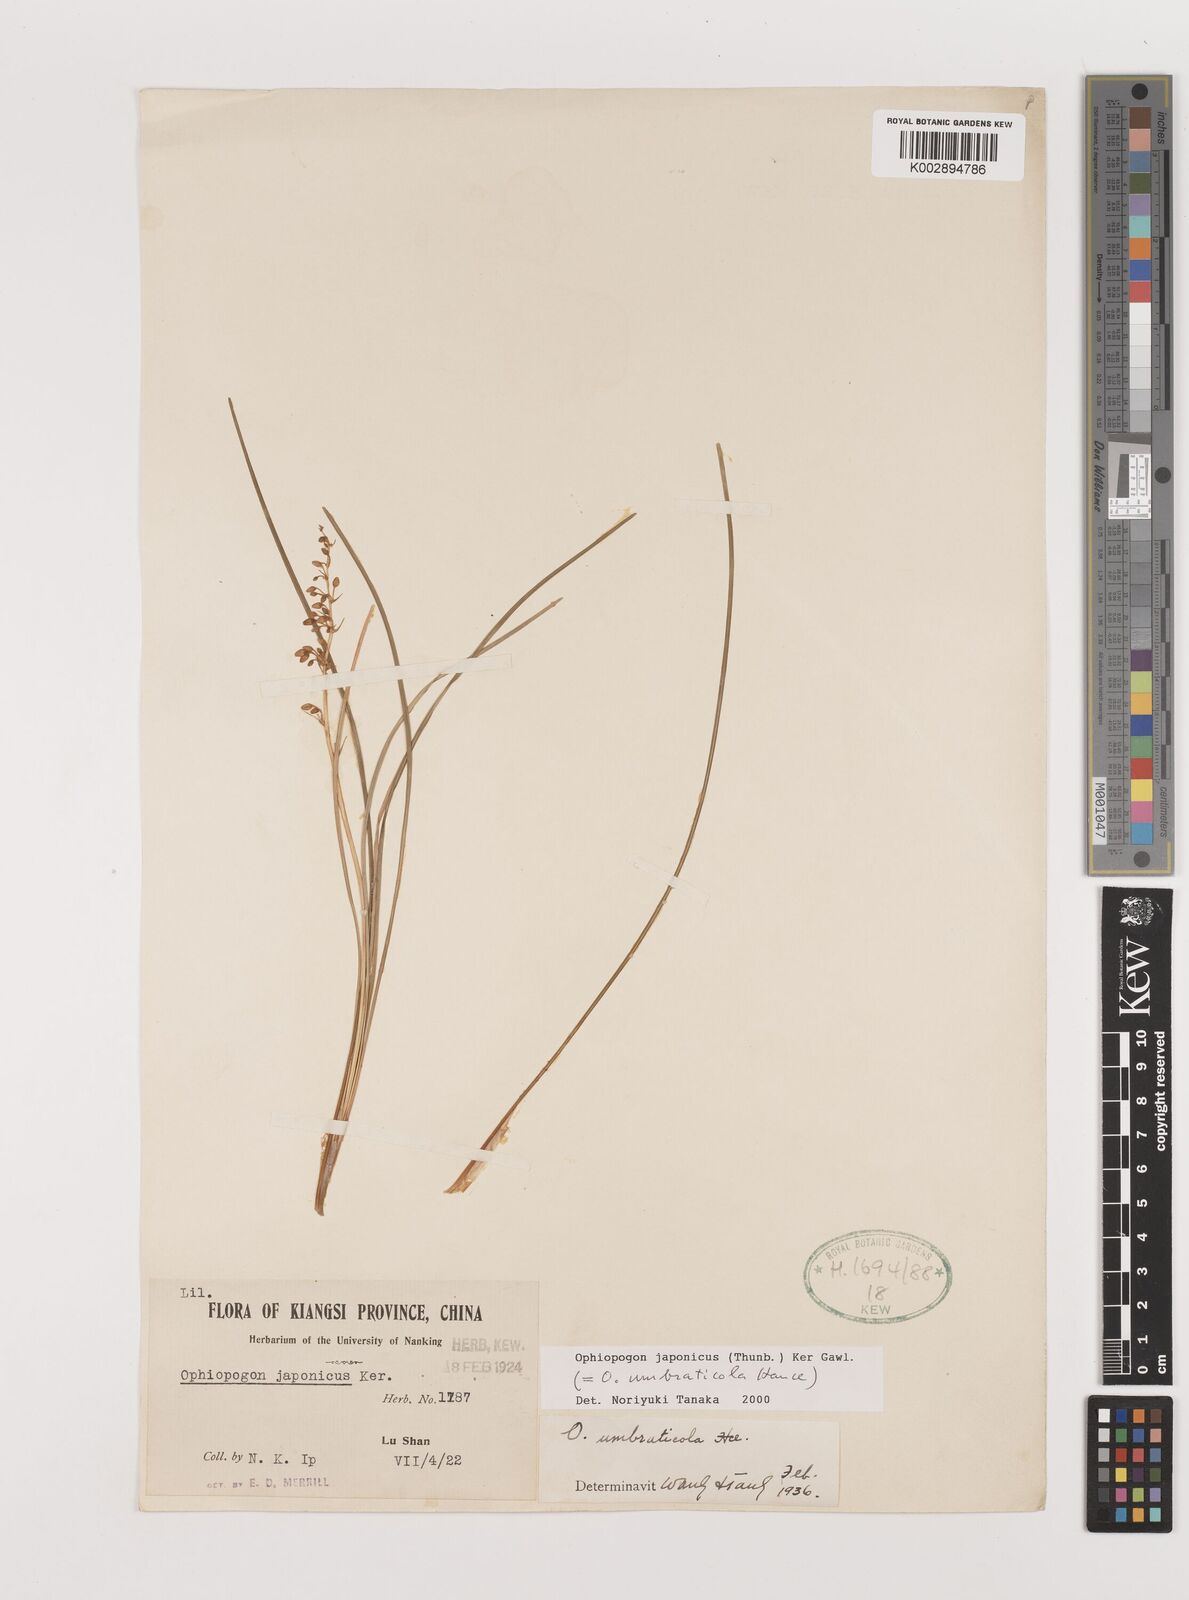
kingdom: Plantae
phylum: Tracheophyta
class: Liliopsida
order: Asparagales
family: Asparagaceae
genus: Ophiopogon
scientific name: Ophiopogon japonicus
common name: Dwarf lilyturf
